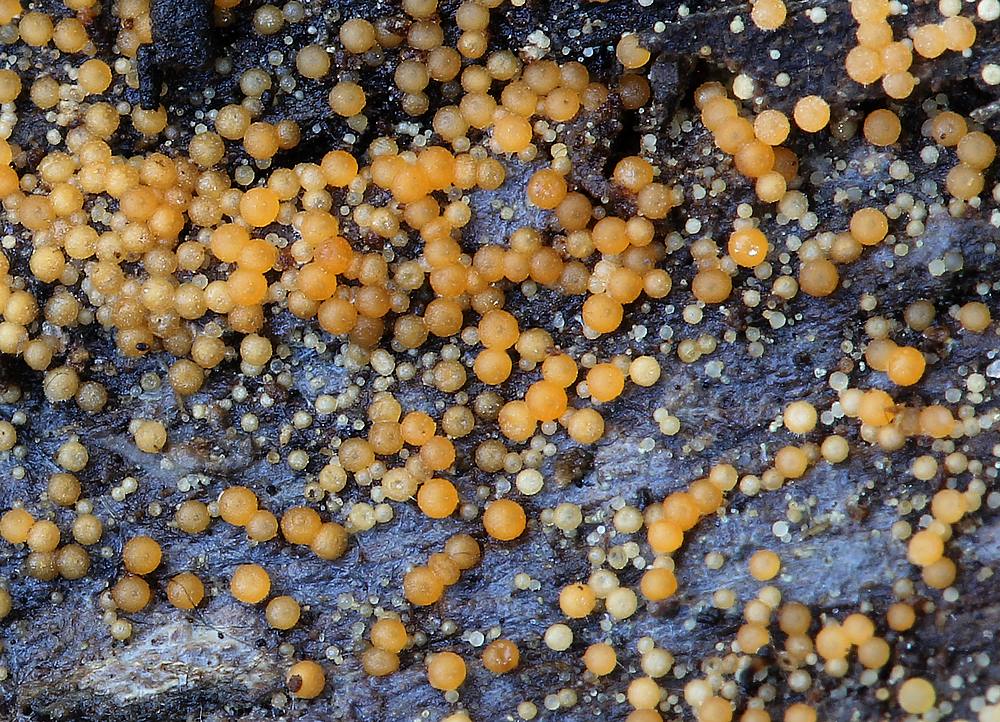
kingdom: Fungi
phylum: Ascomycota
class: Sordariomycetes
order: Hypocreales
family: Nectriaceae
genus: Hydropisphaera
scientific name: Hydropisphaera peziza
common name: skålformet gyldenkerne
